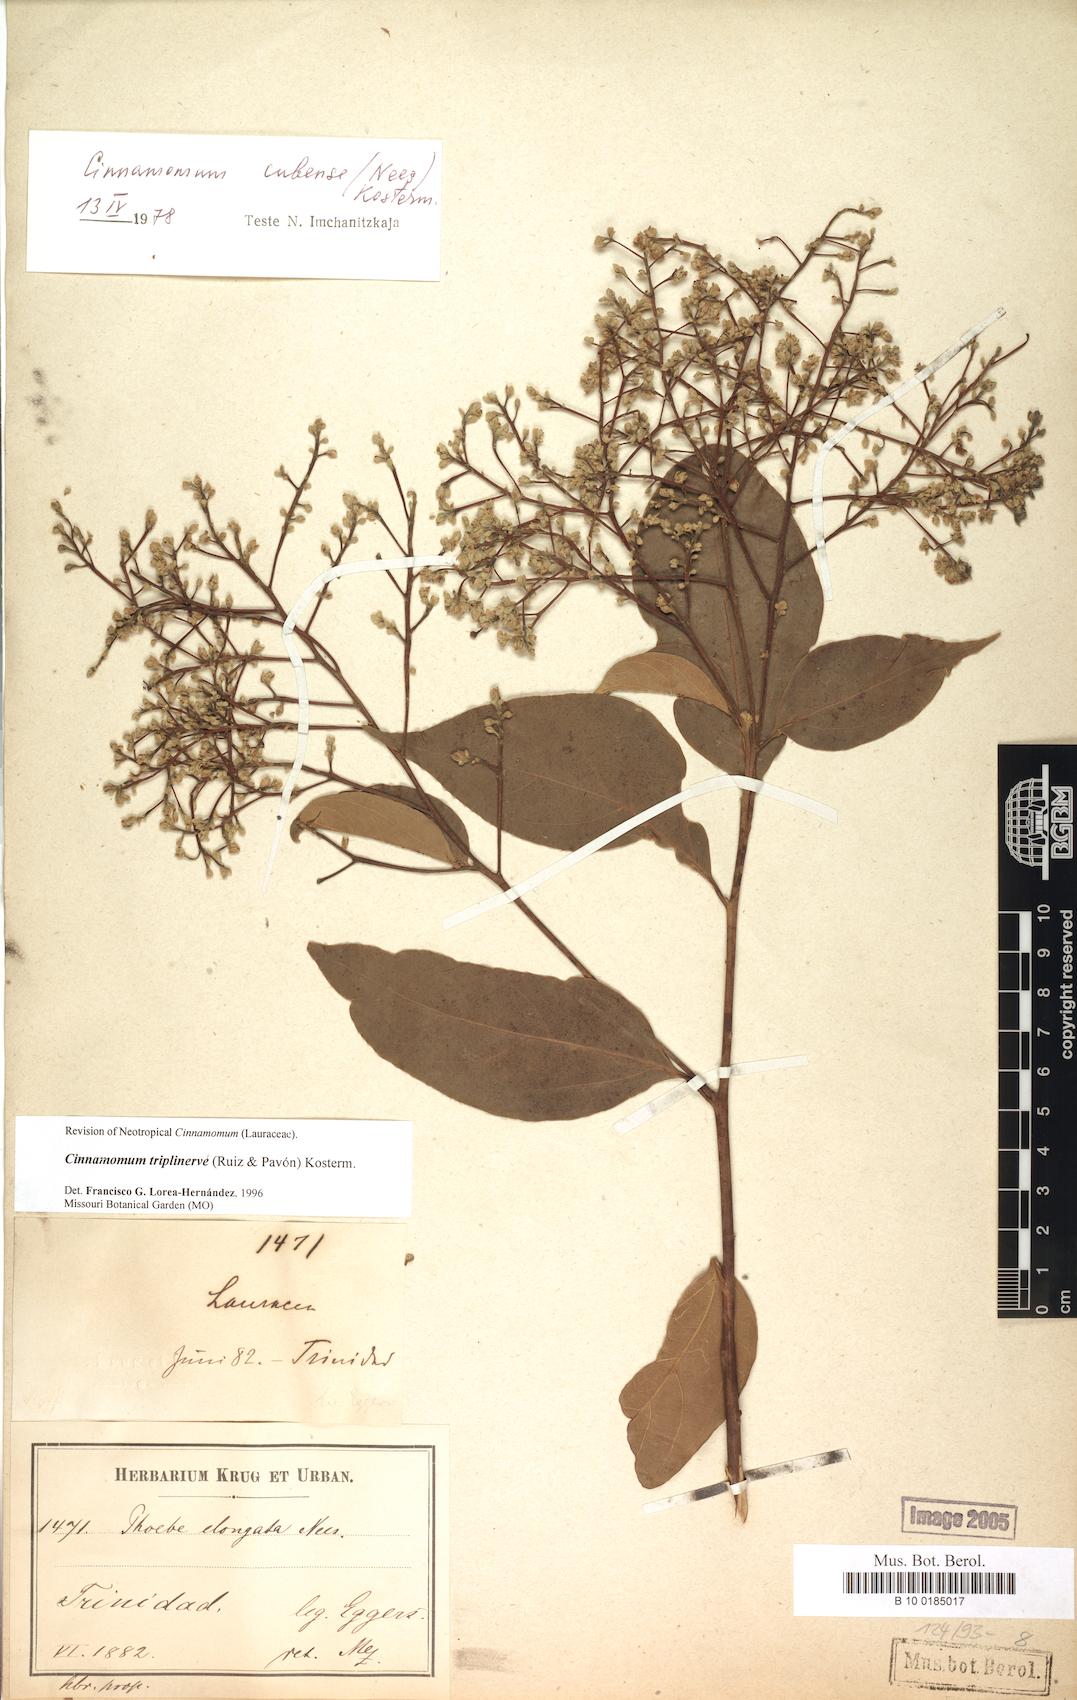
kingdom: Plantae
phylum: Tracheophyta
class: Magnoliopsida
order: Laurales
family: Lauraceae
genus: Aiouea
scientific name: Aiouea montana
